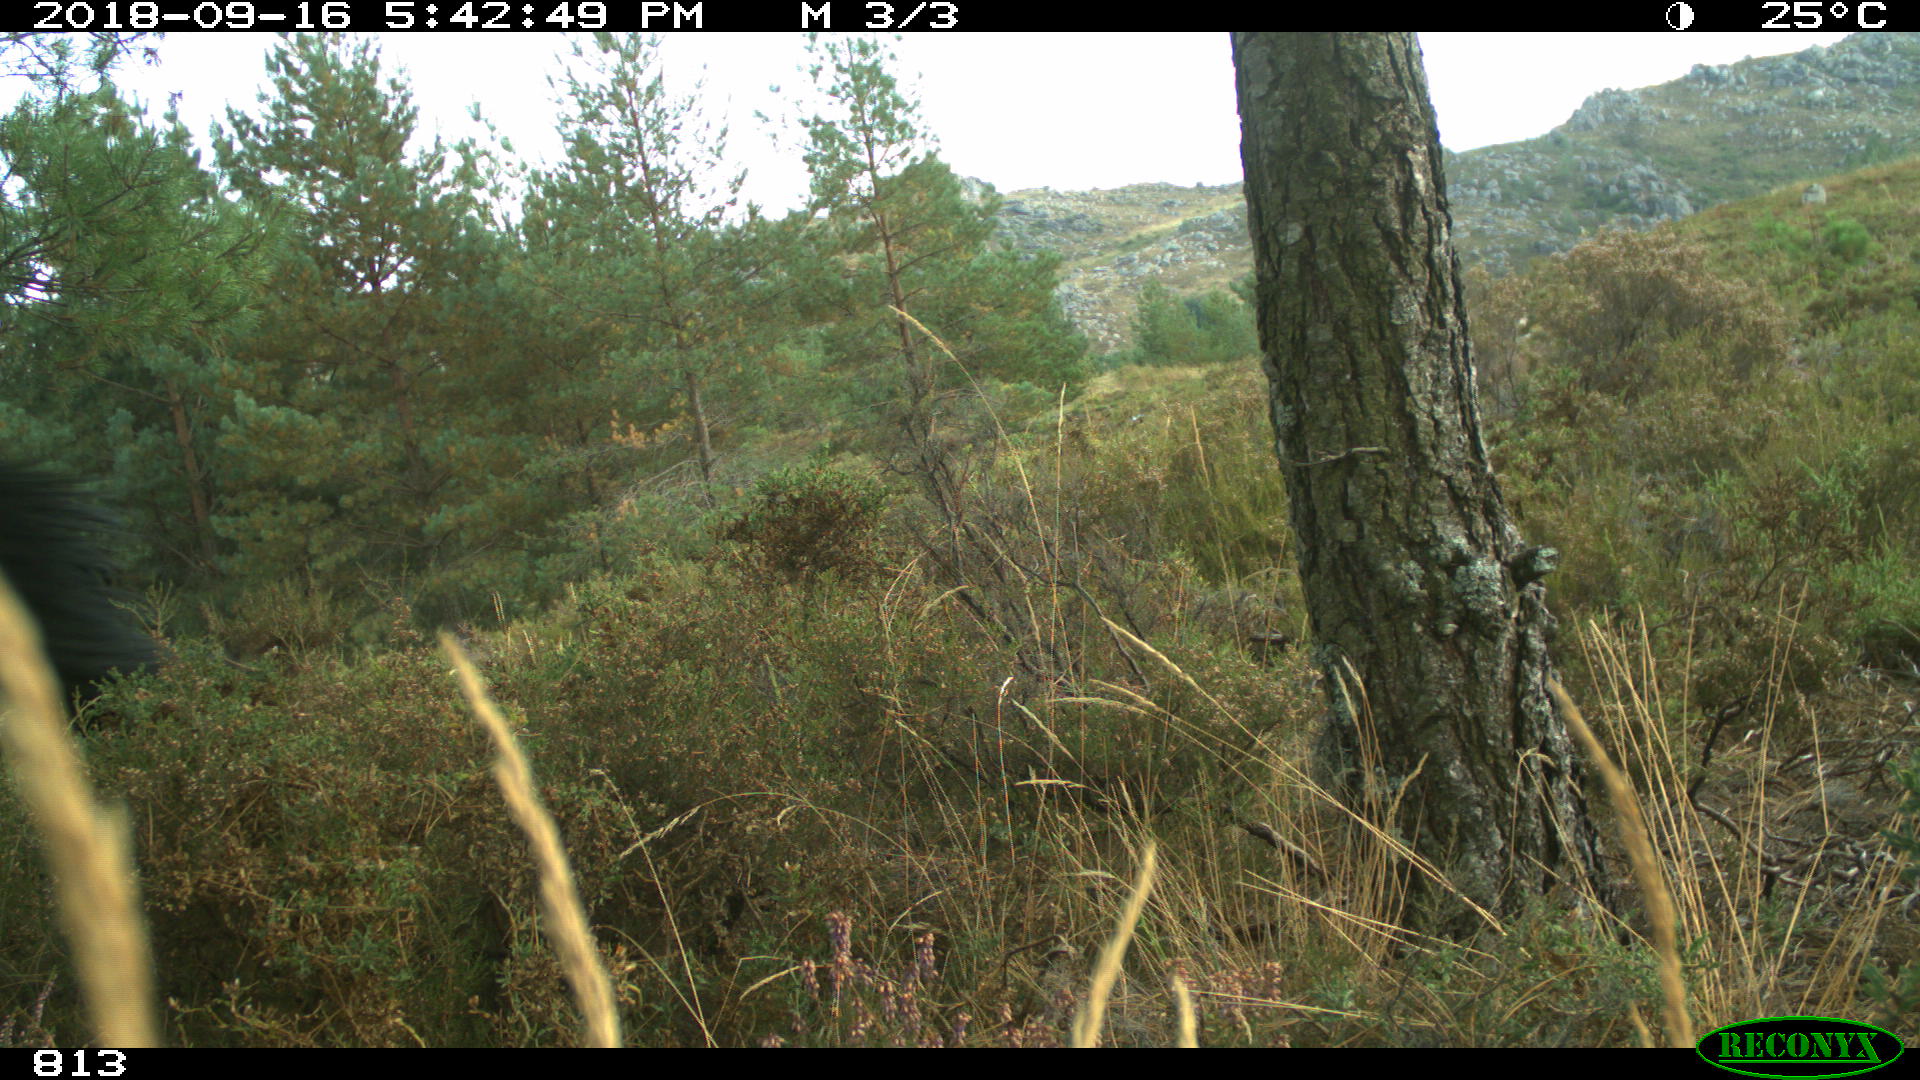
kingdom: Animalia
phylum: Chordata
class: Mammalia
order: Perissodactyla
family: Equidae
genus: Equus
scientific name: Equus caballus
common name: Horse
